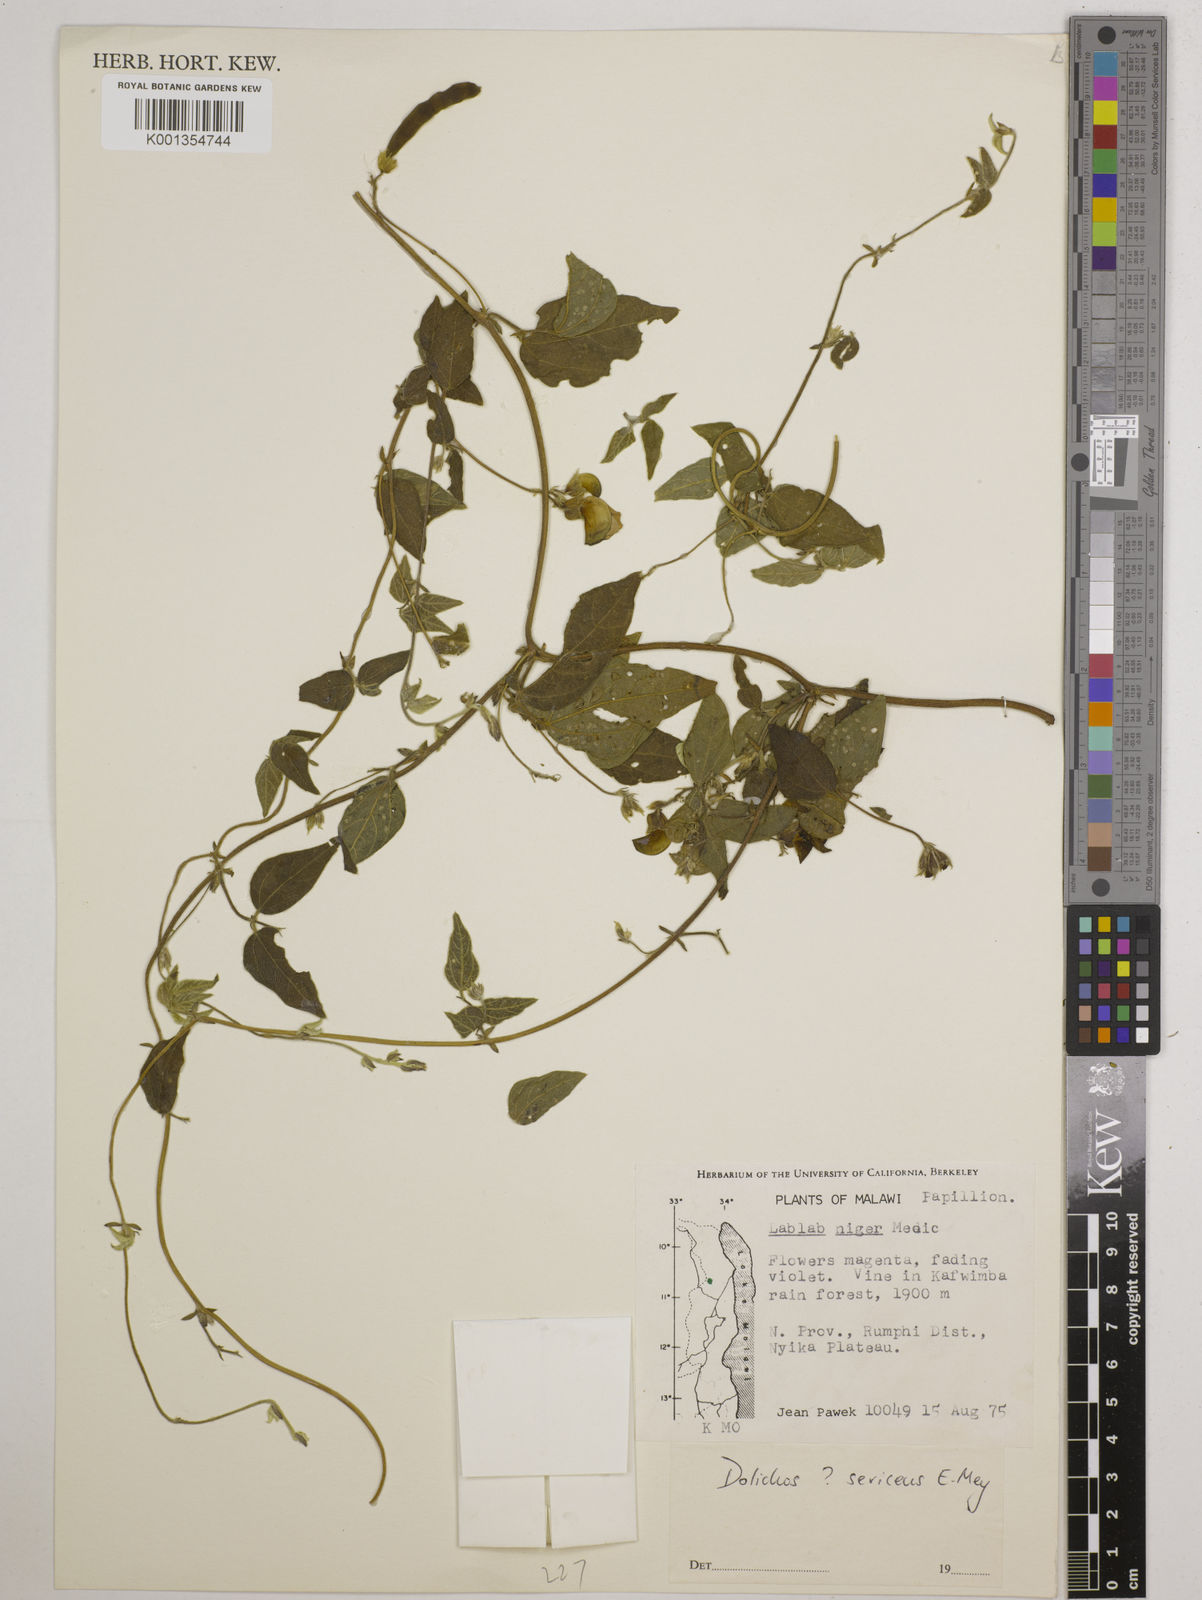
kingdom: Plantae
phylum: Tracheophyta
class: Magnoliopsida
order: Fabales
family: Fabaceae
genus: Dolichos
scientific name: Dolichos
